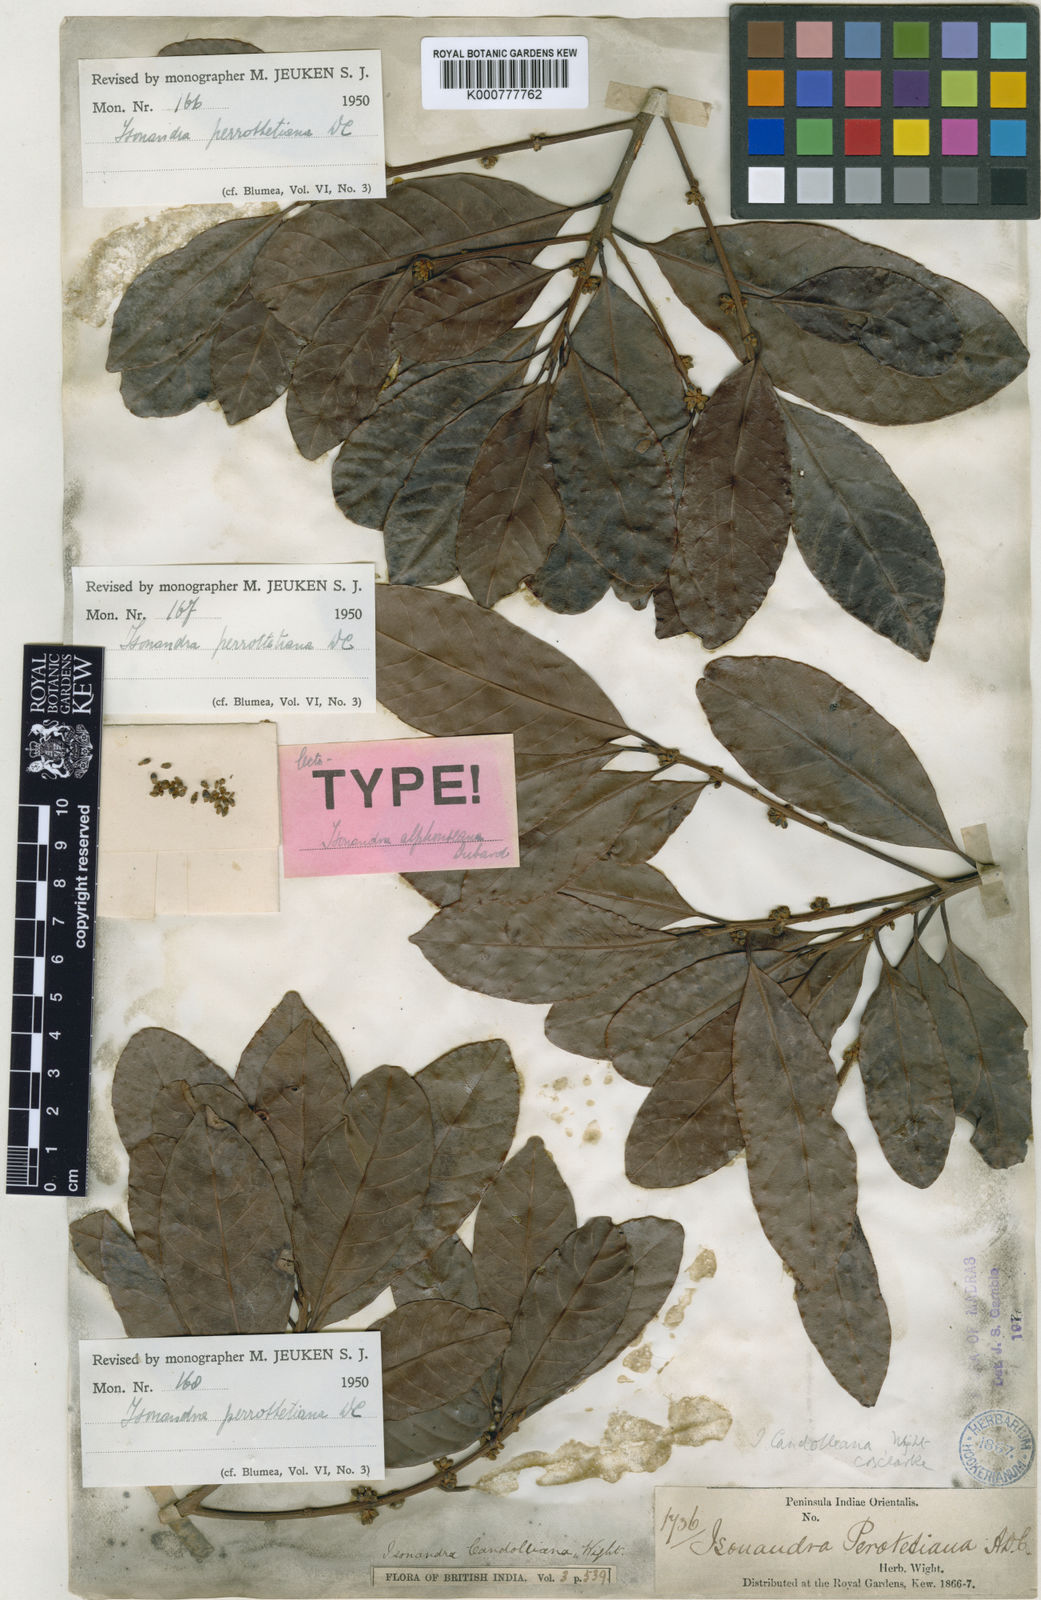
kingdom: Plantae
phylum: Tracheophyta
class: Magnoliopsida
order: Ericales
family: Sapotaceae
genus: Isonandra
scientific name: Isonandra perrottetiana
